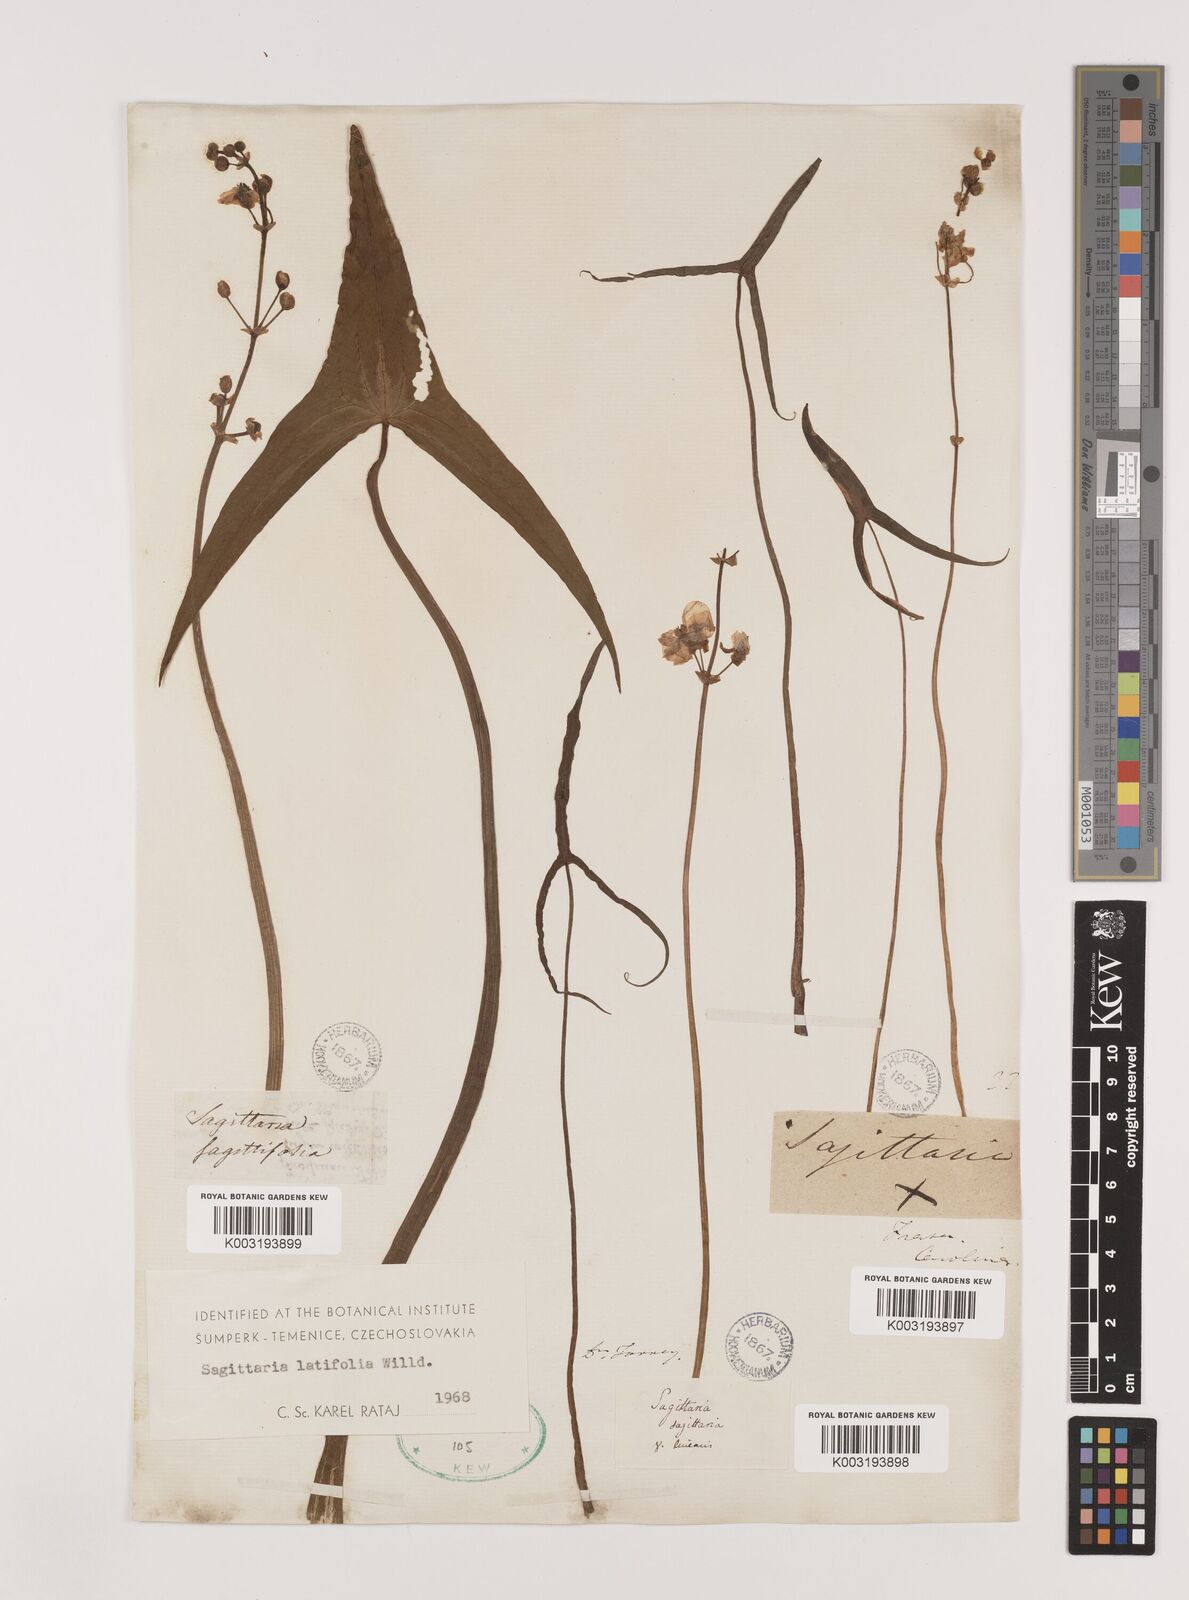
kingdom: Plantae
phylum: Tracheophyta
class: Liliopsida
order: Alismatales
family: Alismataceae
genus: Sagittaria
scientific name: Sagittaria latifolia
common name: Duck-potato
